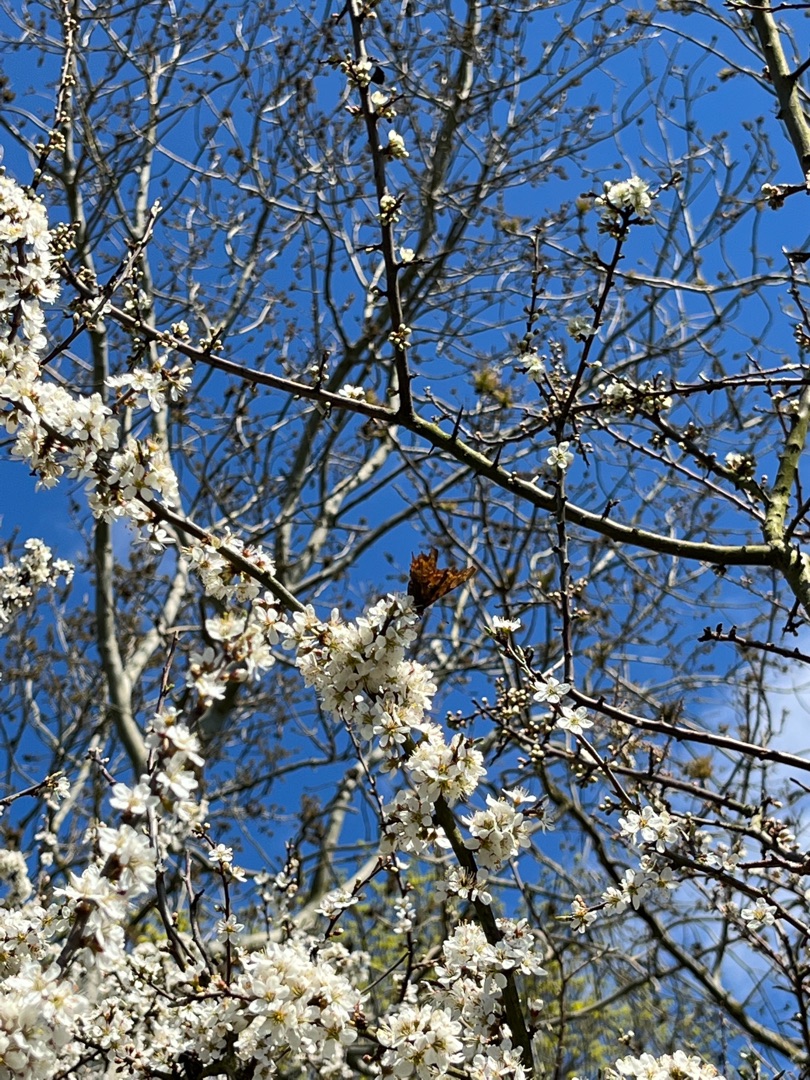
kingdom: Animalia
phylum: Arthropoda
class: Insecta
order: Lepidoptera
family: Nymphalidae
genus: Polygonia
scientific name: Polygonia c-album
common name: Det hvide C
